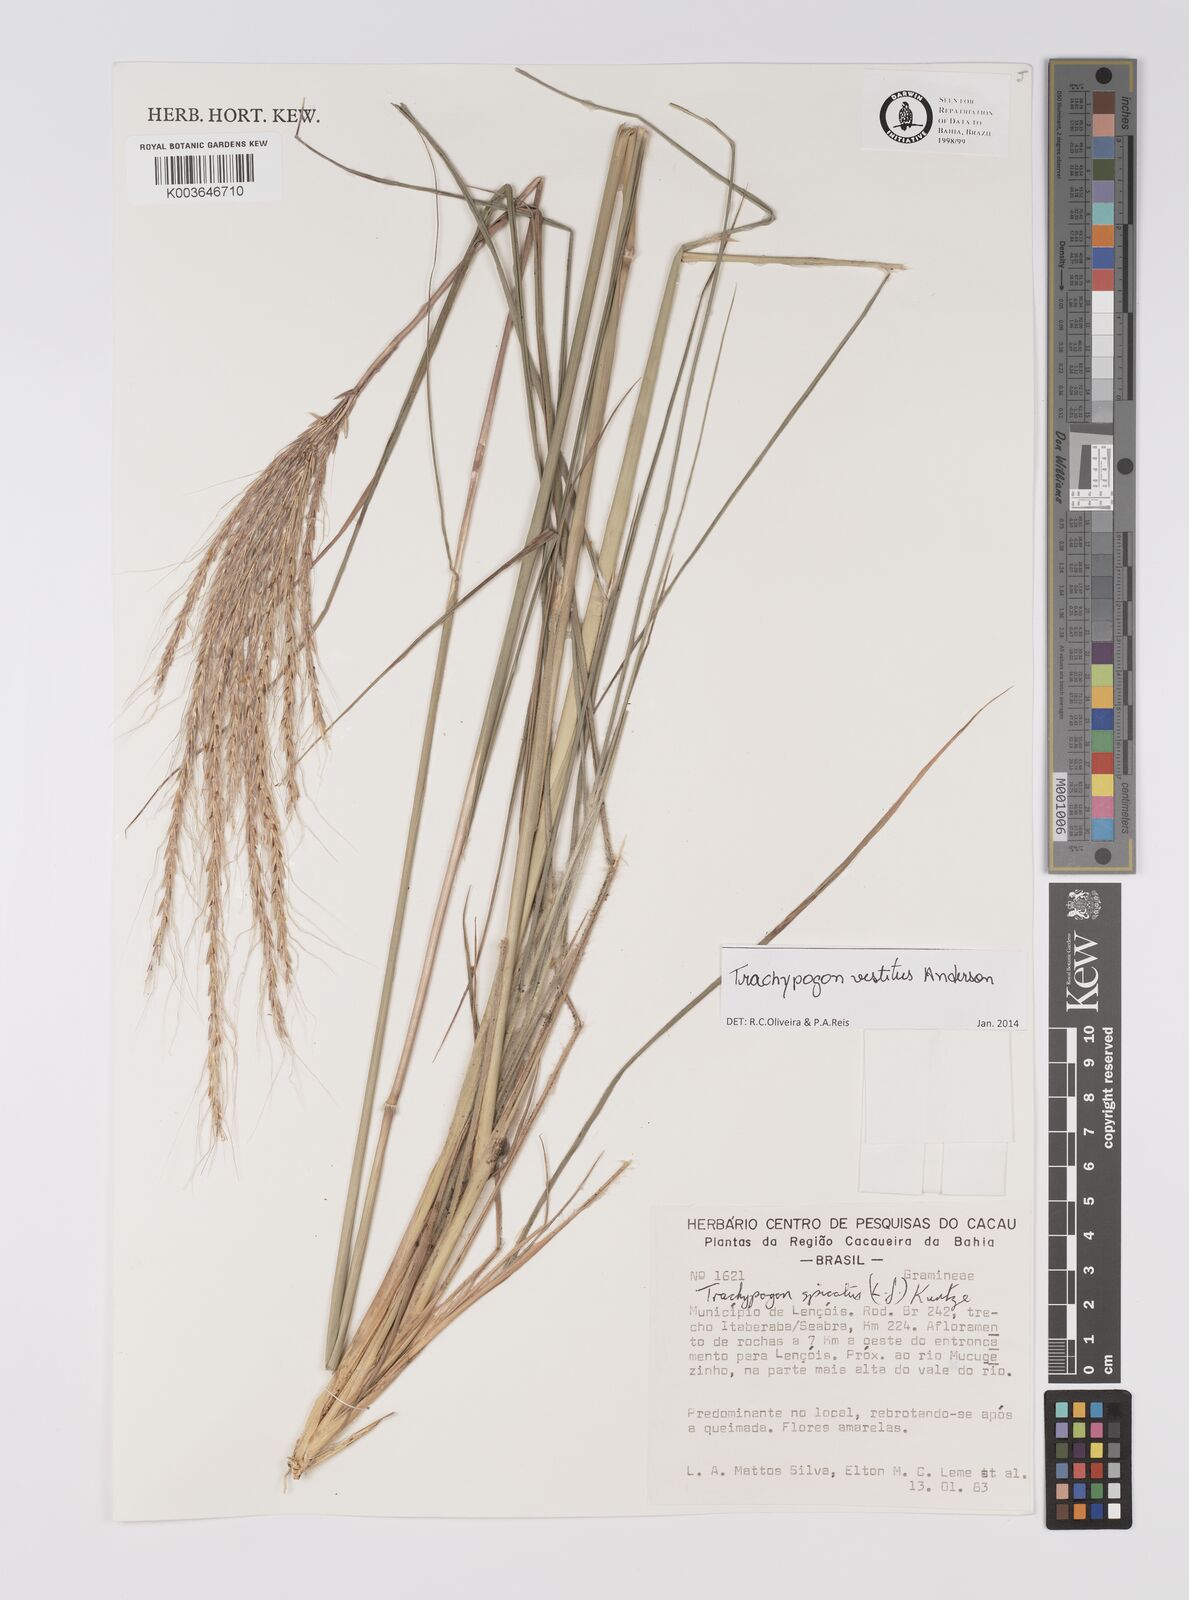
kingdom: Plantae
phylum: Tracheophyta
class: Liliopsida
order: Poales
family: Poaceae
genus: Trachypogon
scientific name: Trachypogon vestitus
